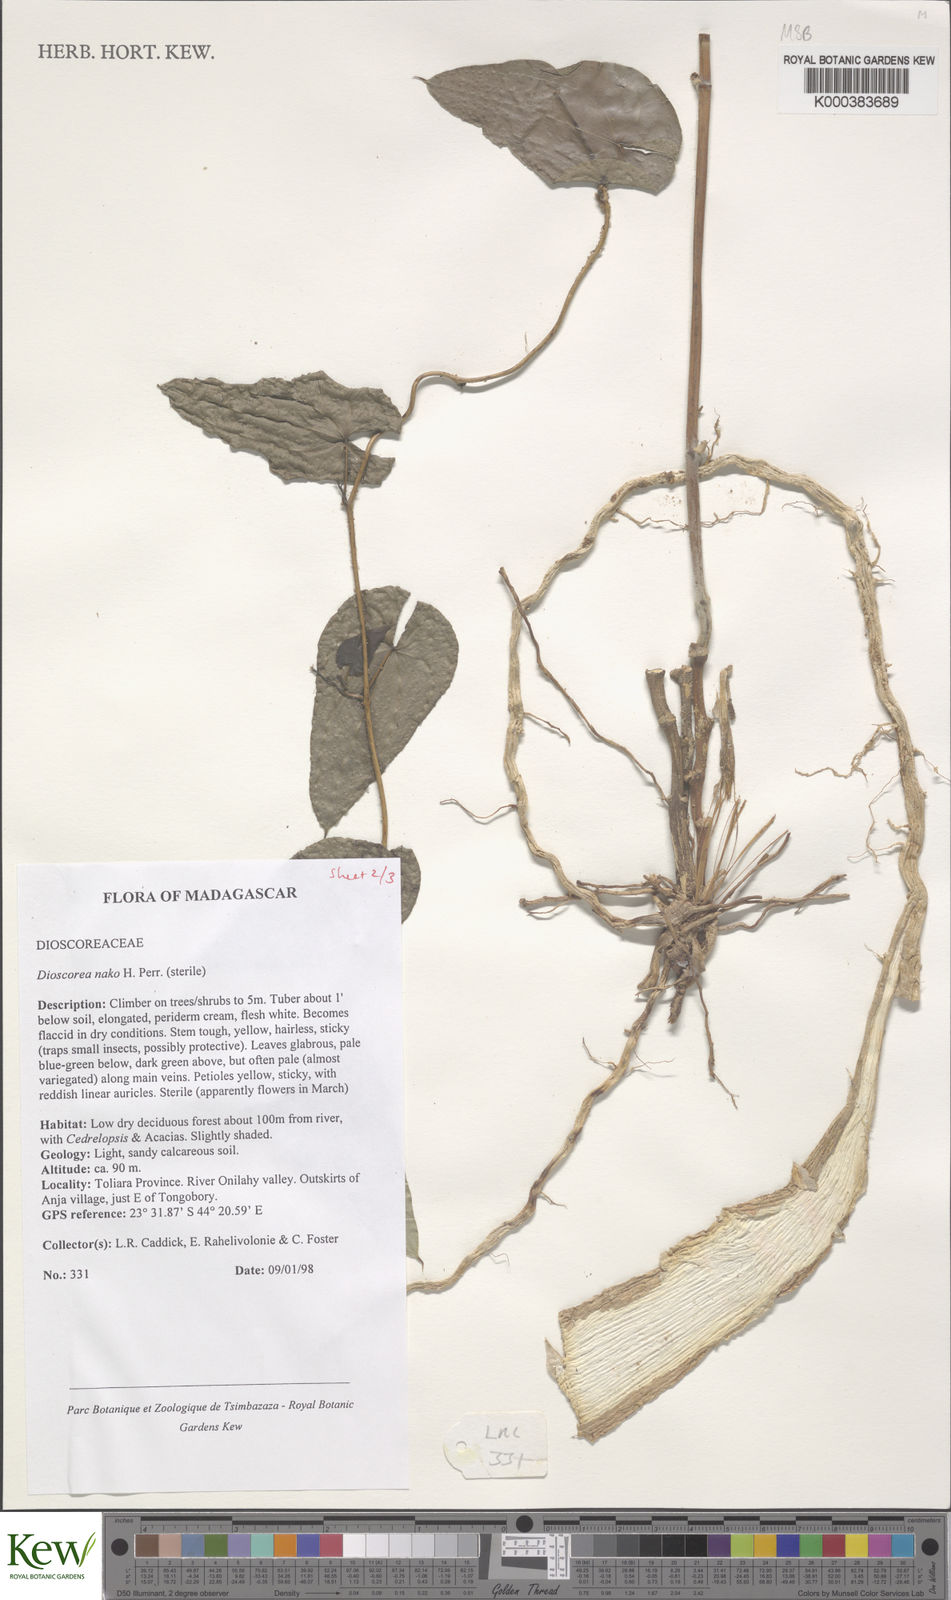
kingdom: Plantae
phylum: Tracheophyta
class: Liliopsida
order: Dioscoreales
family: Dioscoreaceae
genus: Dioscorea
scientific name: Dioscorea
